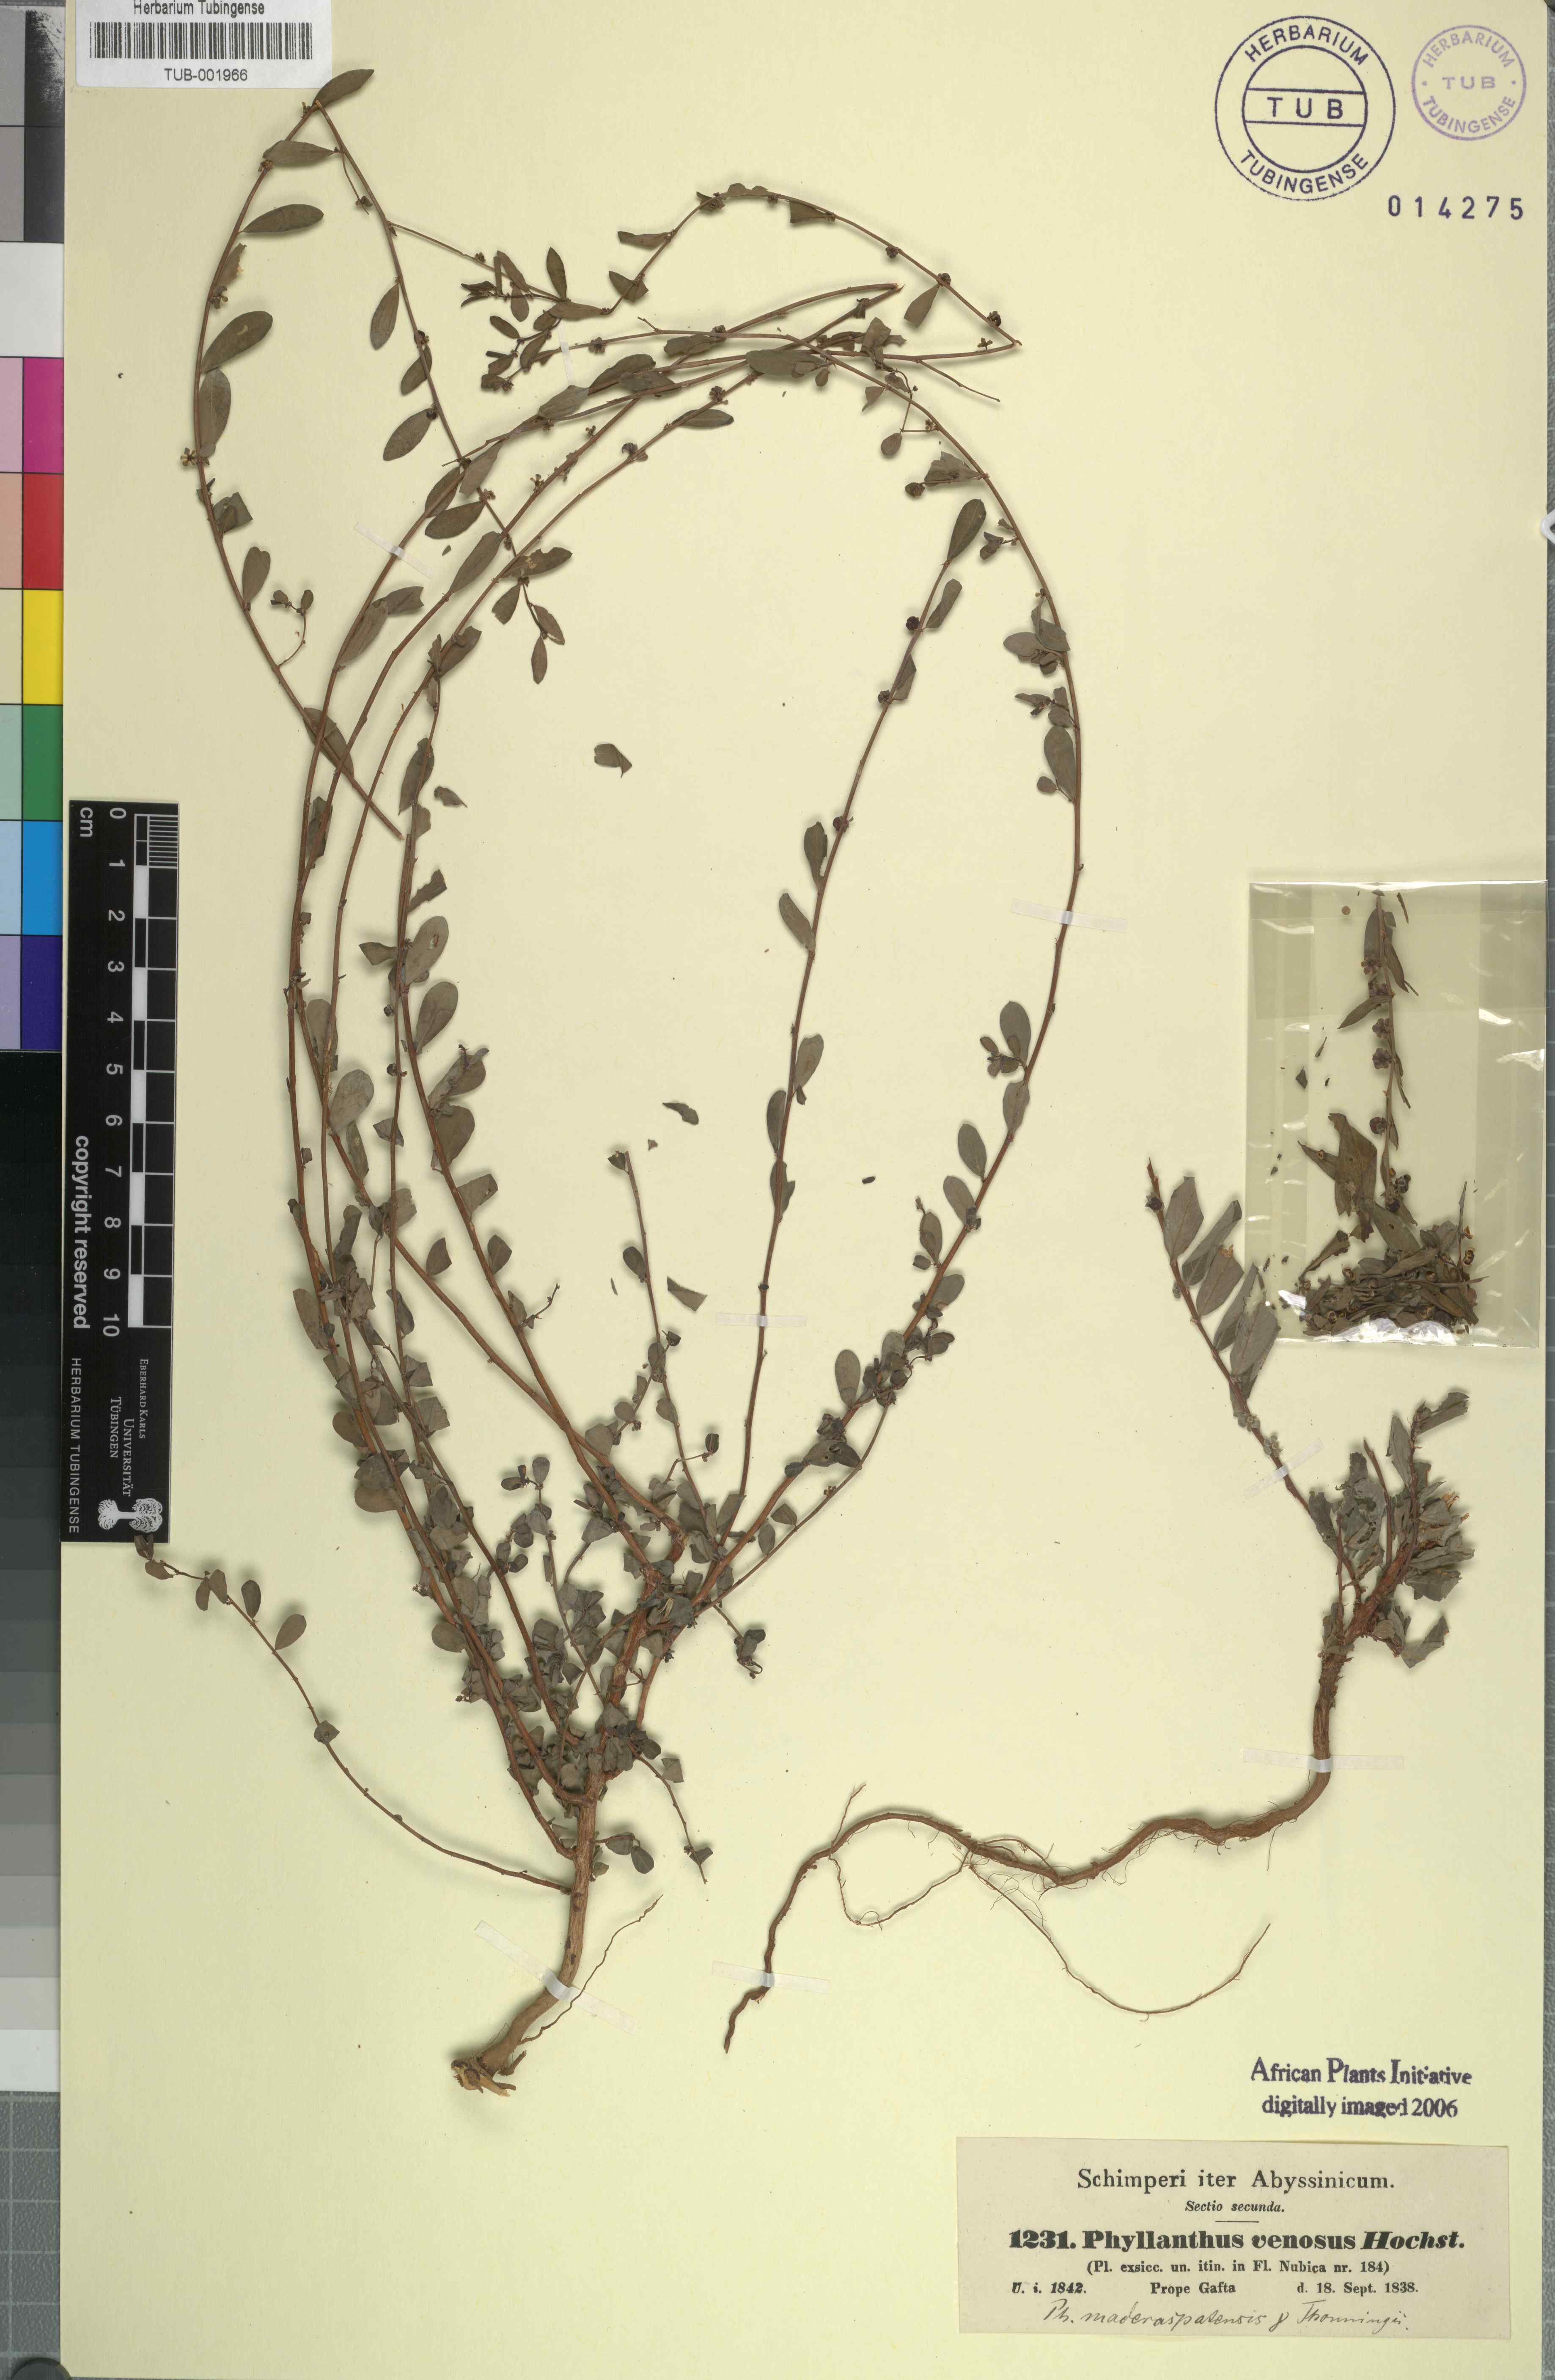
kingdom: Plantae
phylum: Tracheophyta
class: Magnoliopsida
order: Malpighiales
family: Phyllanthaceae
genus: Phyllanthus
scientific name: Phyllanthus maderaspatensis
